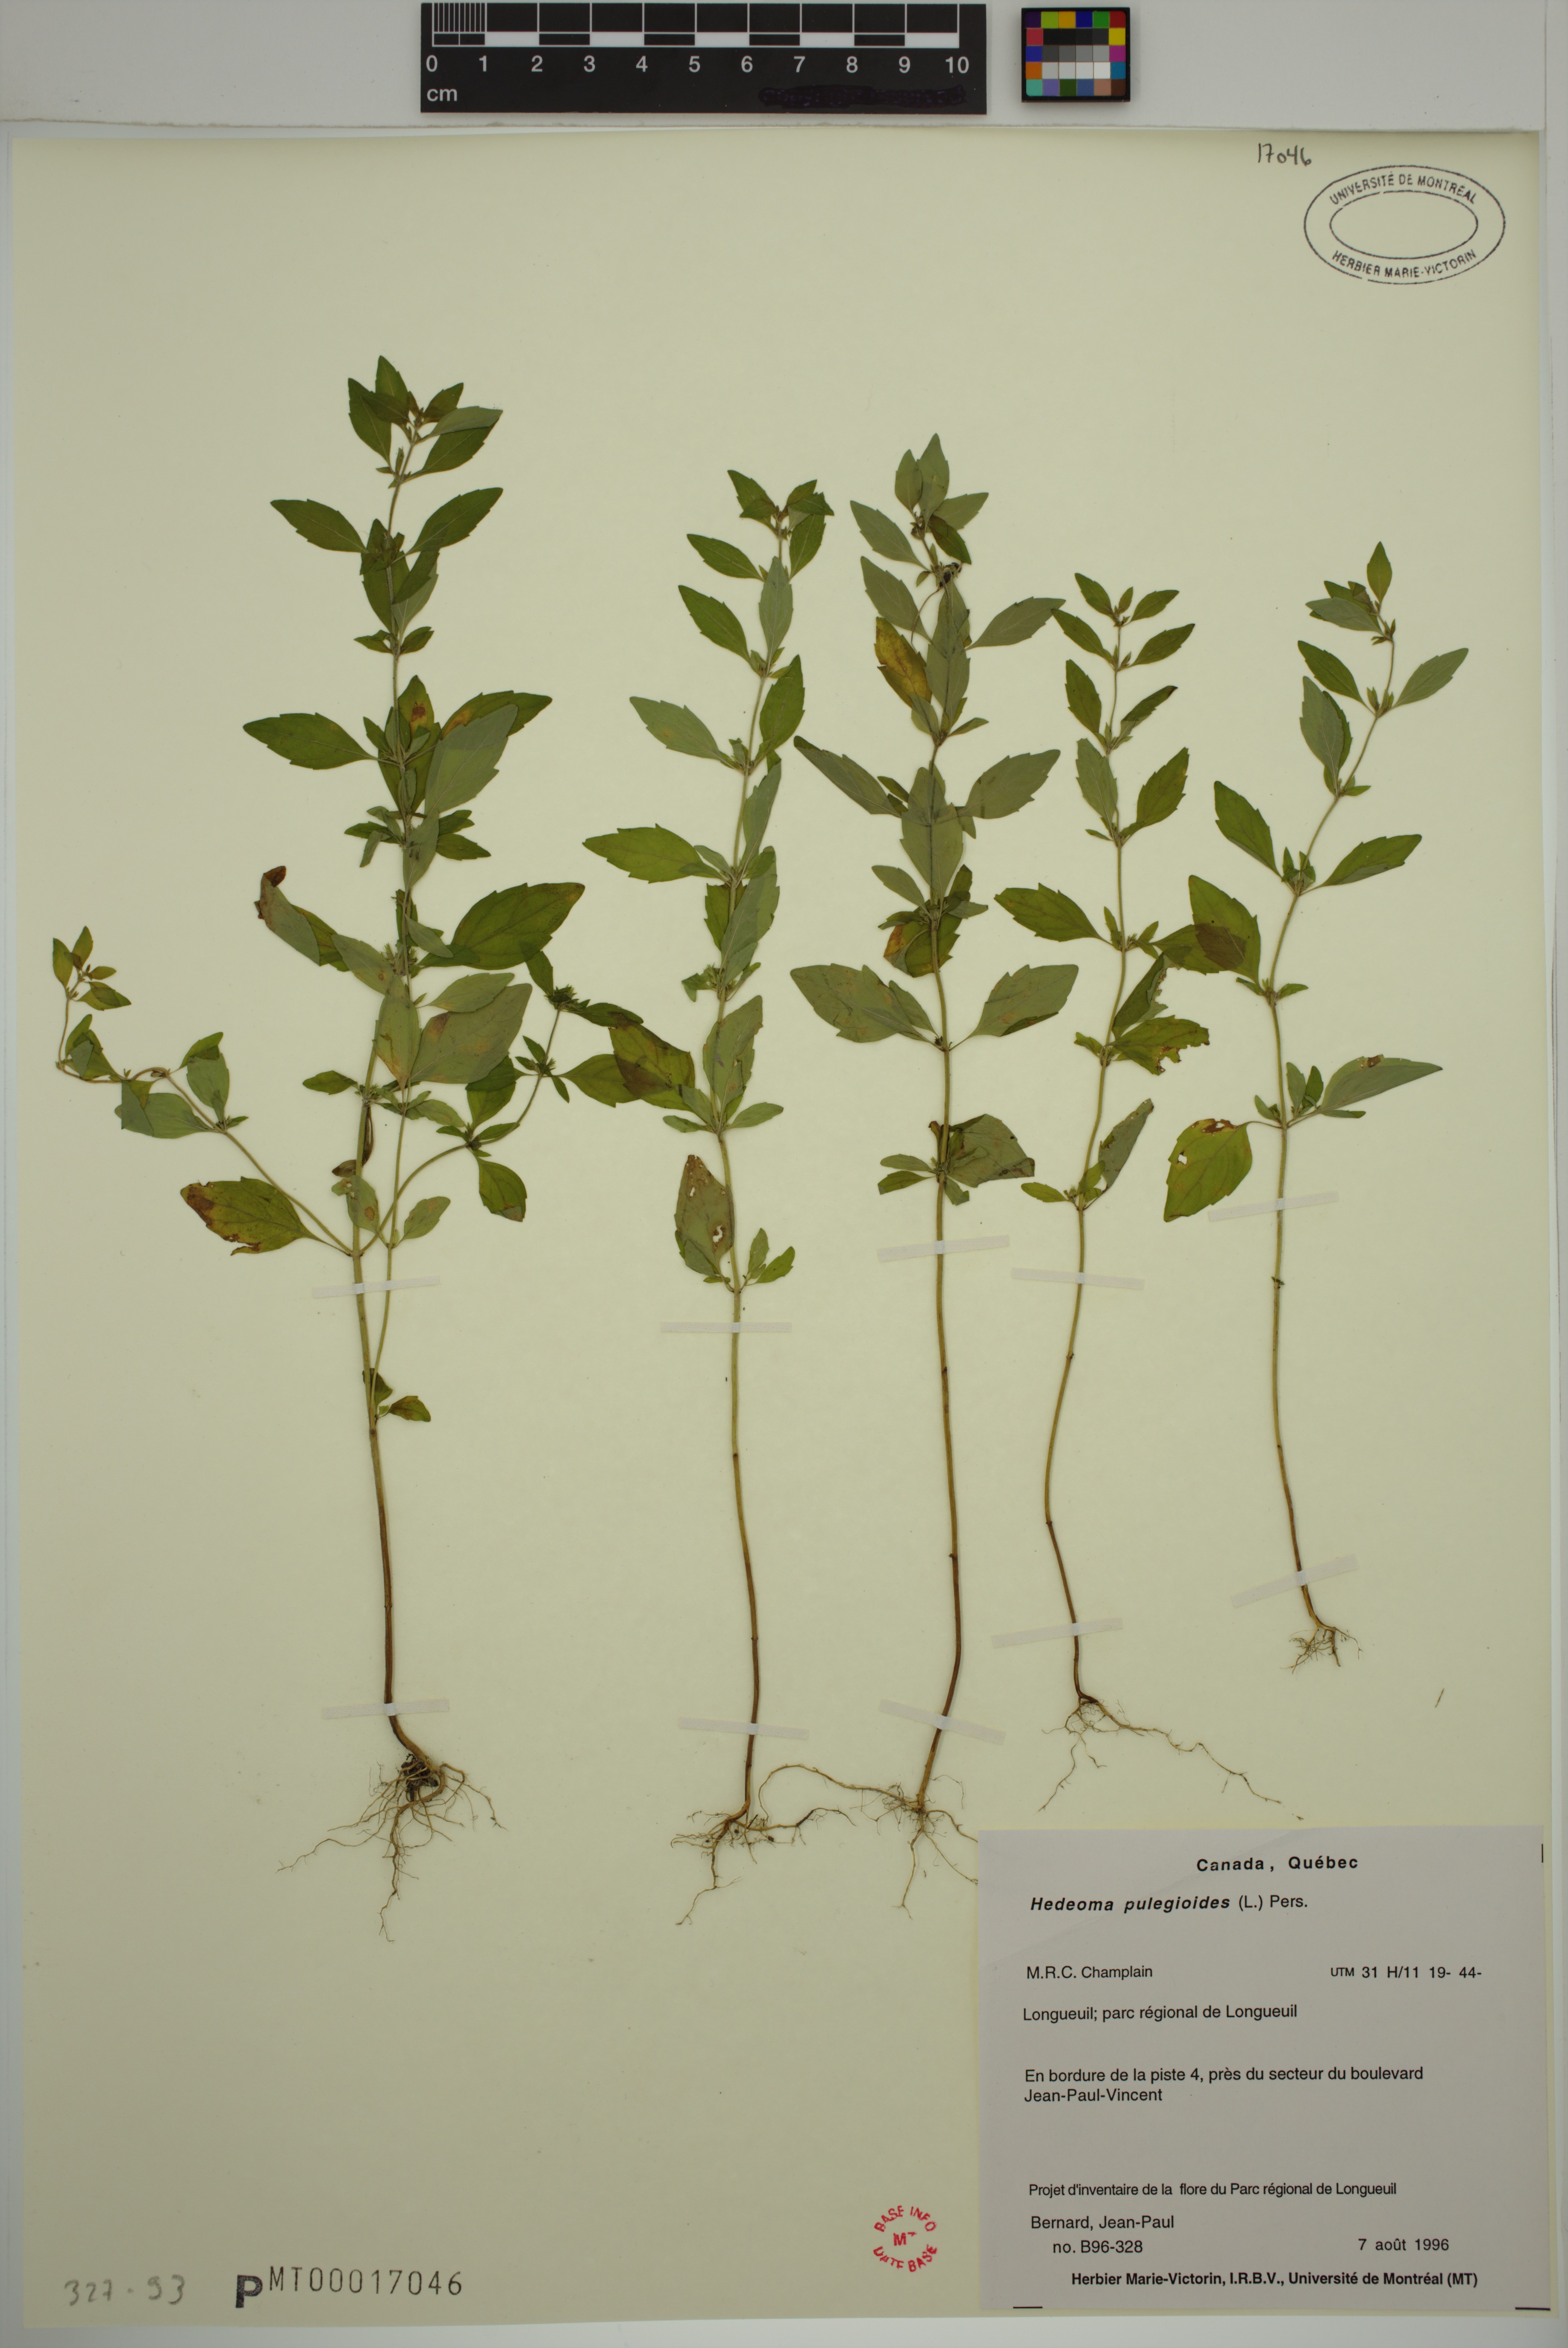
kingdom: Plantae
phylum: Tracheophyta
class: Magnoliopsida
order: Lamiales
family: Lamiaceae
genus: Hedeoma
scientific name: Hedeoma pulegioides
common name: American false pennyroyal
